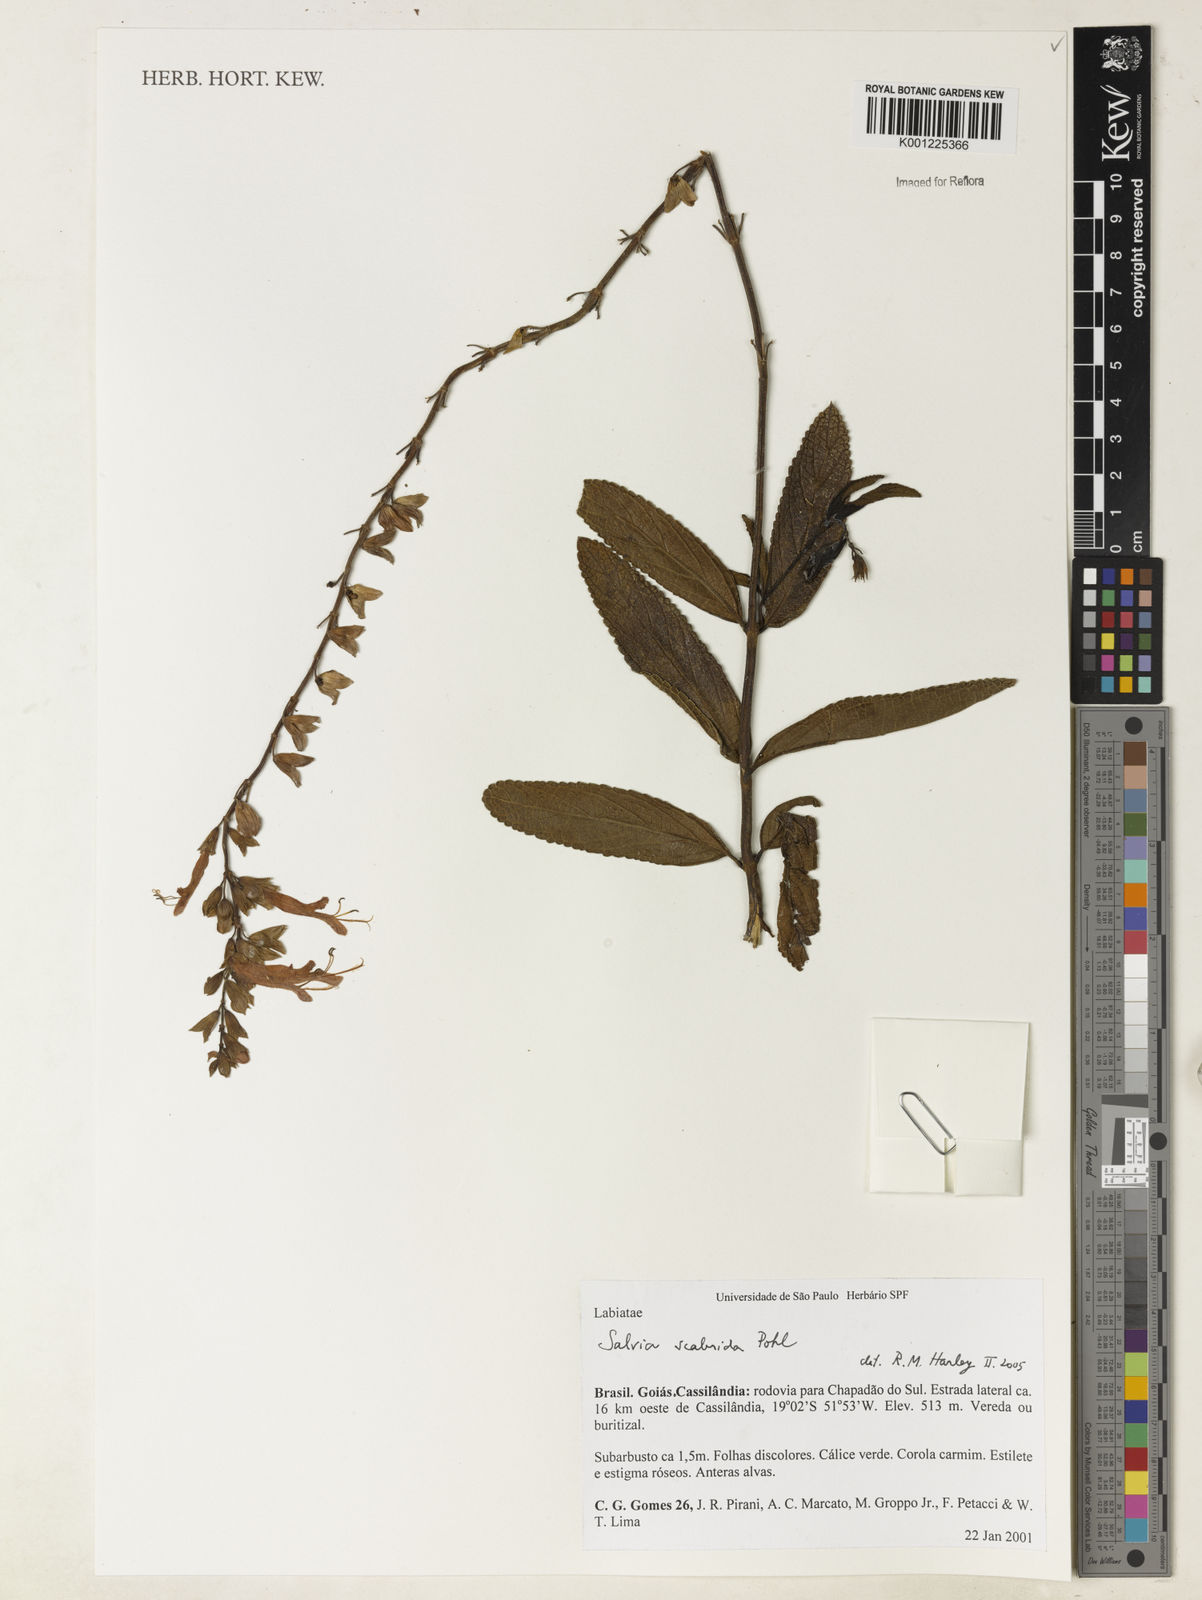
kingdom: Plantae
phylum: Tracheophyta
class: Magnoliopsida
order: Lamiales
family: Lamiaceae
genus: Salvia
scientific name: Salvia scabrida
